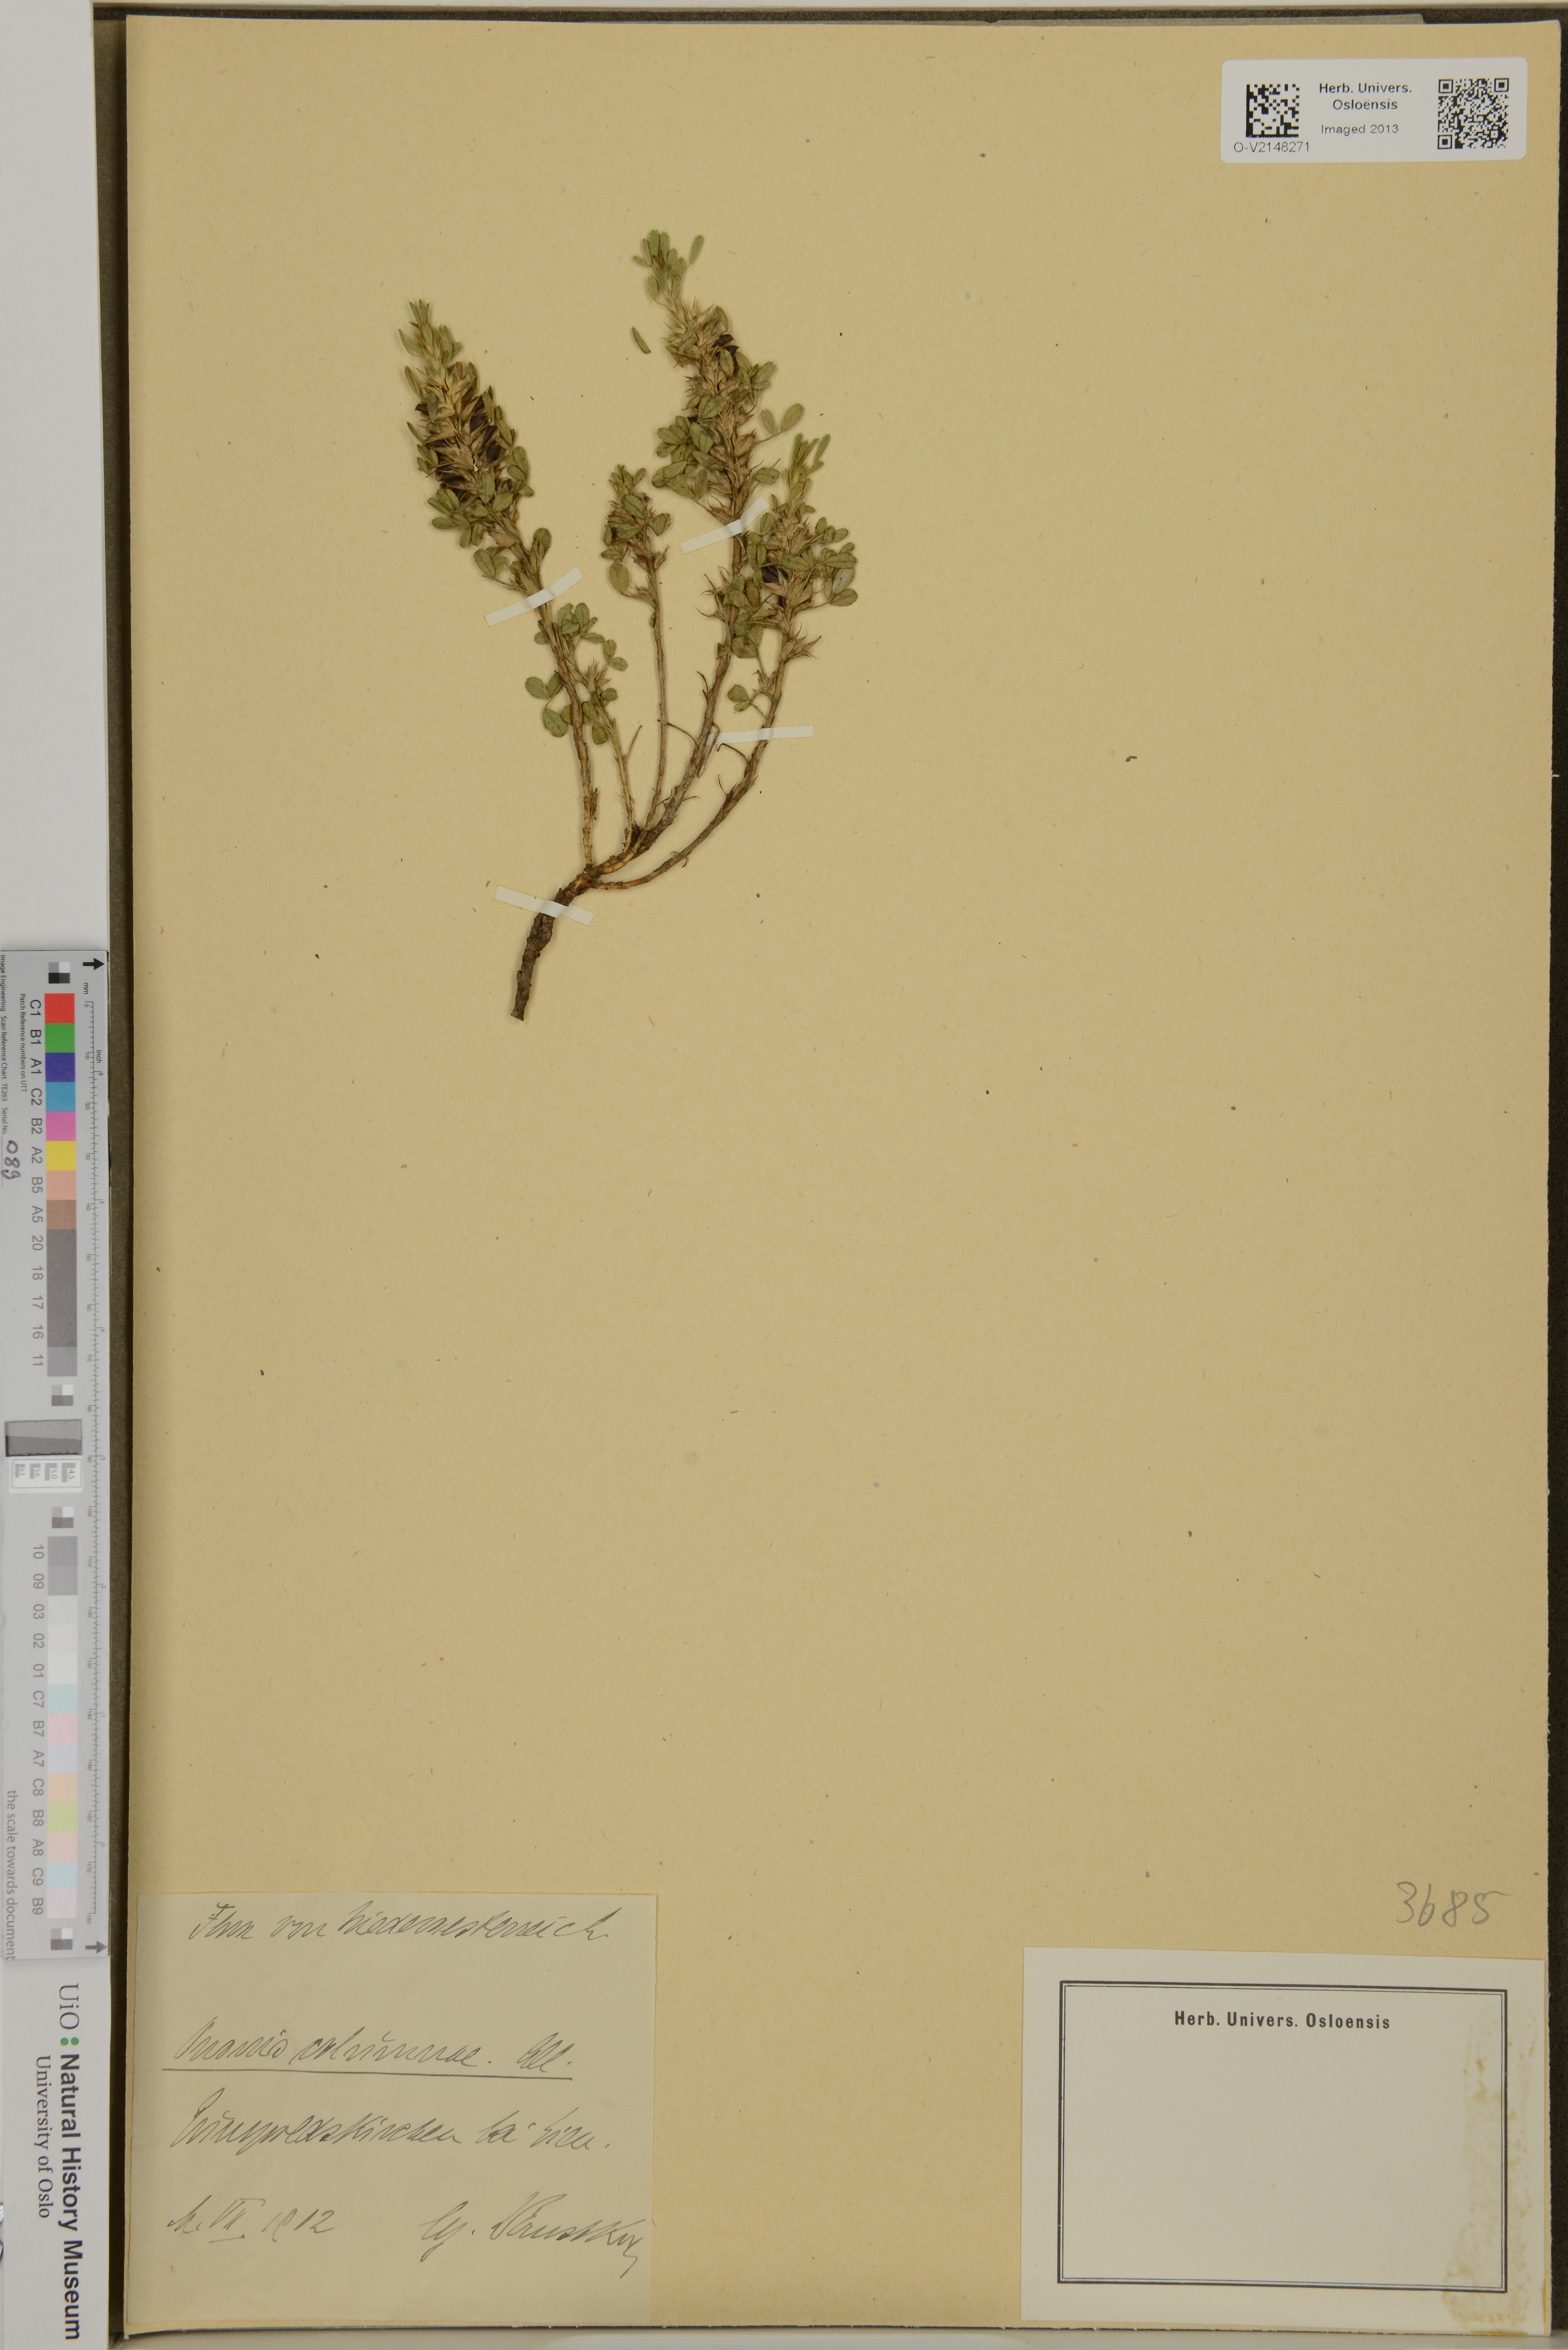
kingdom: Plantae
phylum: Tracheophyta
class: Magnoliopsida
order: Fabales
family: Fabaceae
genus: Ononis
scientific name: Ononis pusilla
